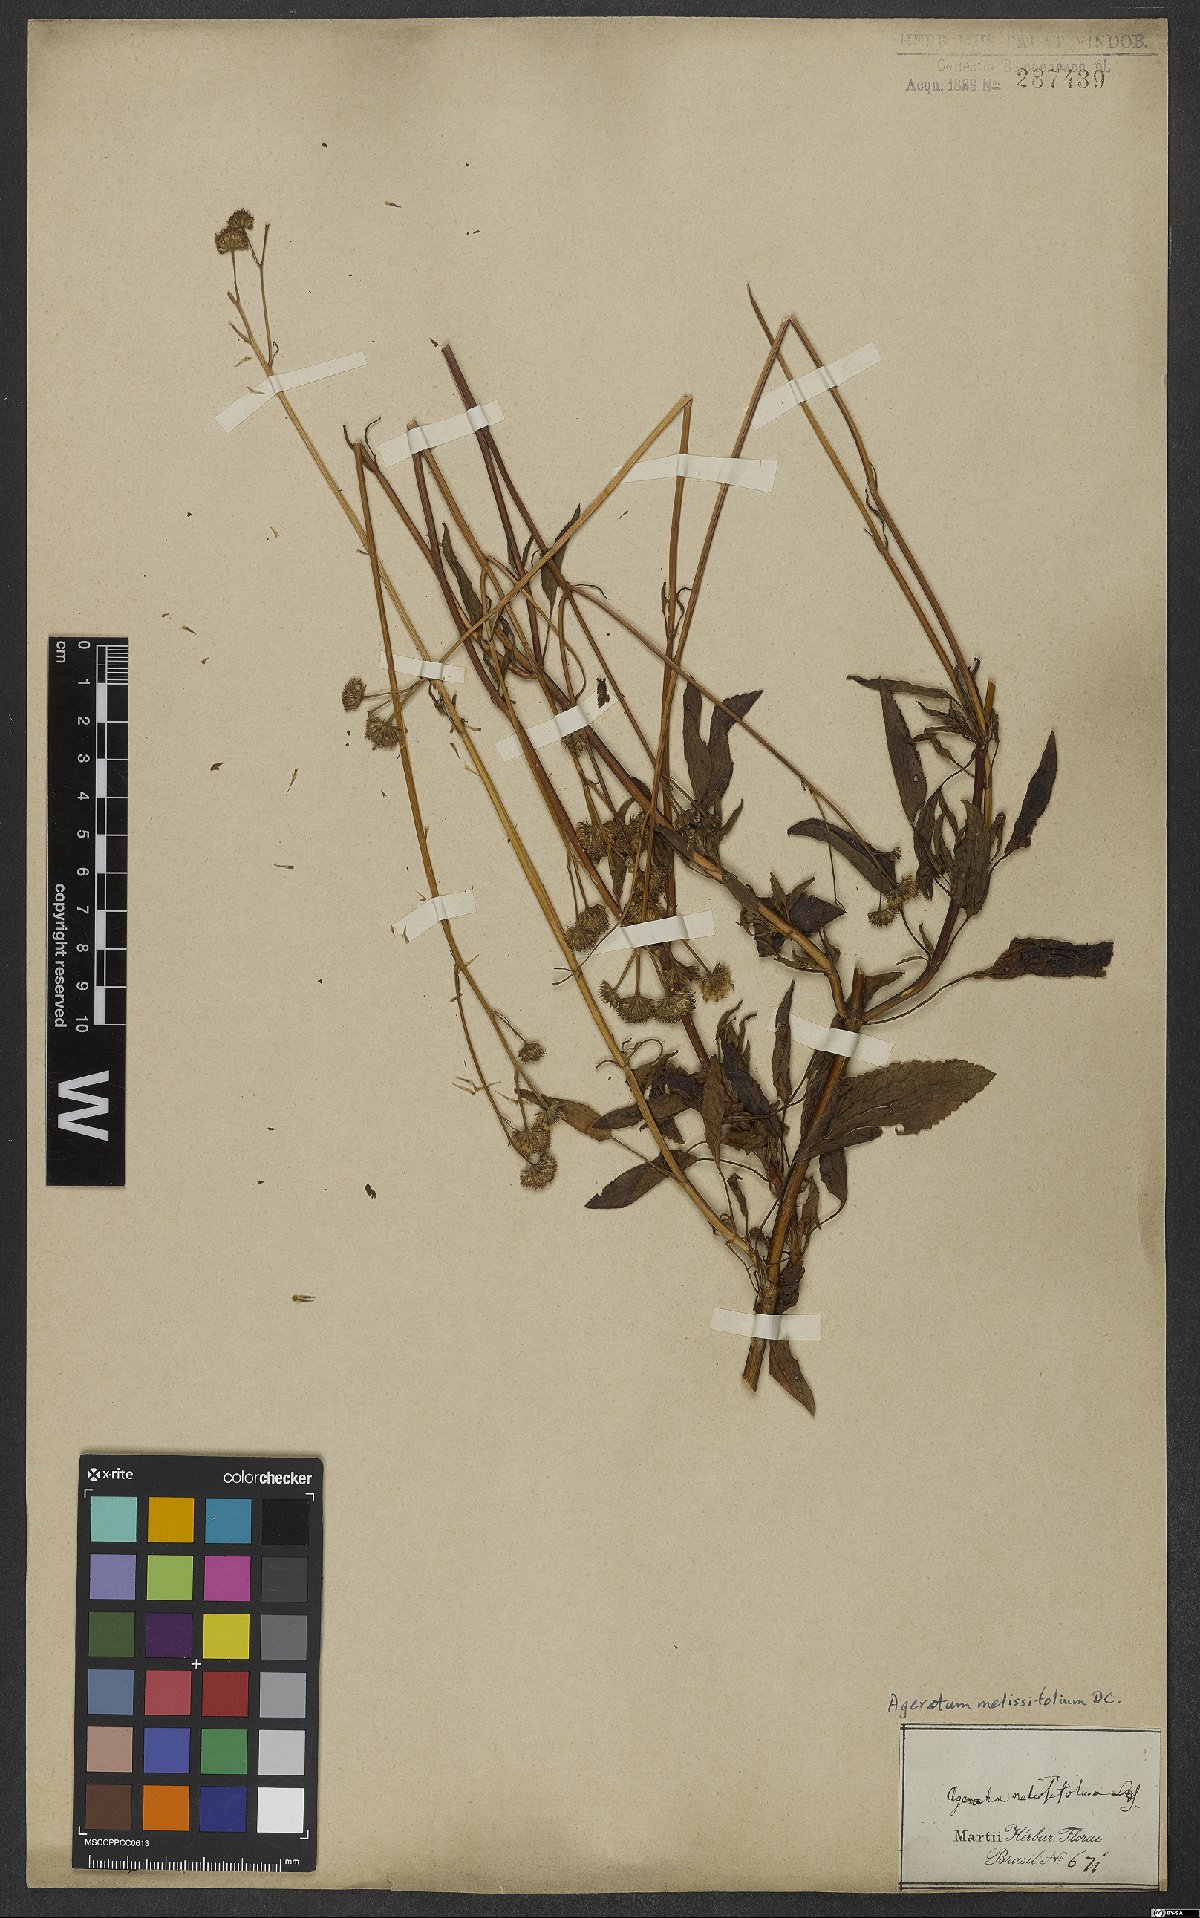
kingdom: Plantae
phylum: Tracheophyta
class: Magnoliopsida
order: Asterales
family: Asteraceae
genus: Platypodanthera
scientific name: Platypodanthera melissifolia
